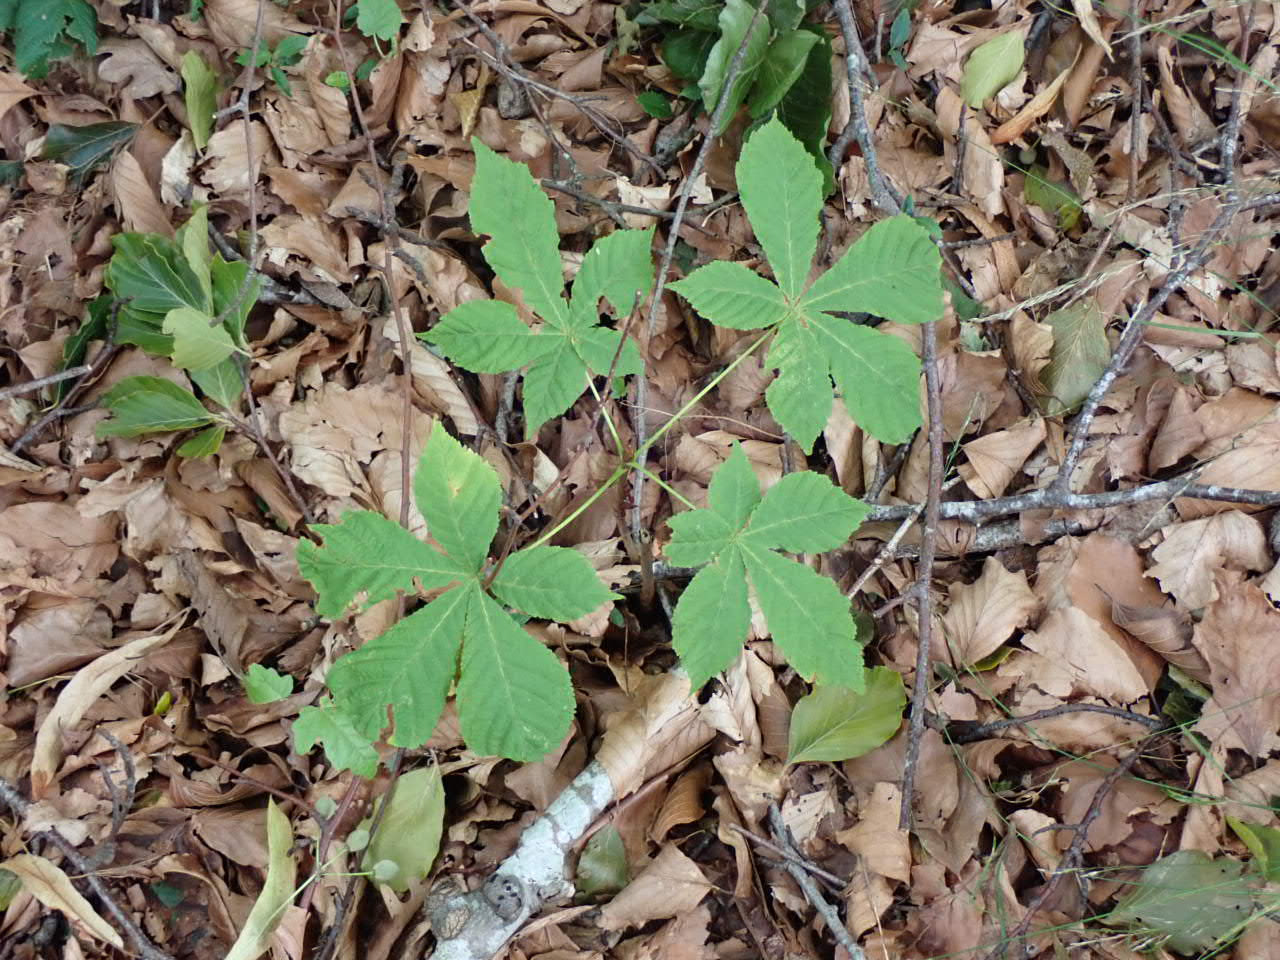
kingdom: Plantae
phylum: Tracheophyta
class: Magnoliopsida
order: Sapindales
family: Sapindaceae
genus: Aesculus
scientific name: Aesculus hippocastanum
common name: Hestekastanie
